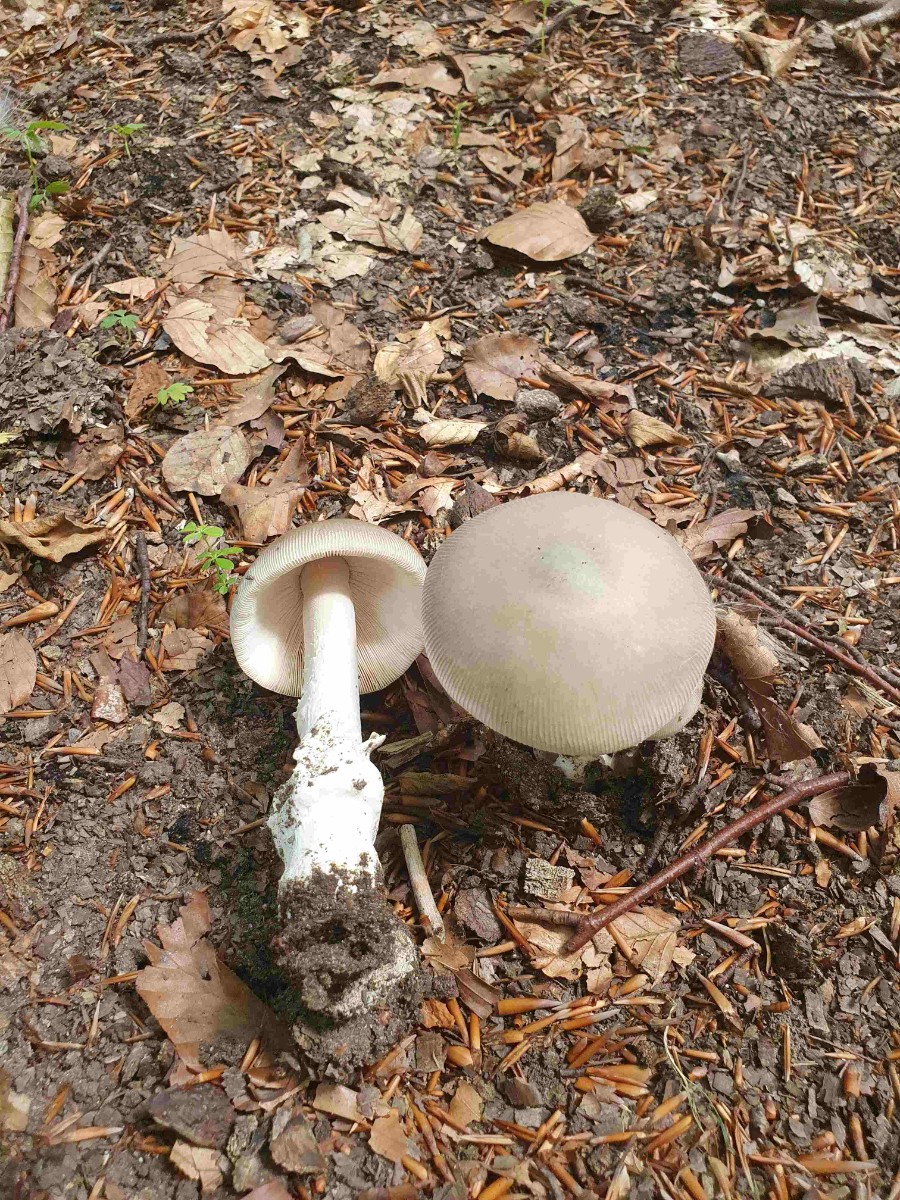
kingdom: Fungi
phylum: Basidiomycota
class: Agaricomycetes
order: Agaricales
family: Amanitaceae
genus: Amanita
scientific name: Amanita coryli
